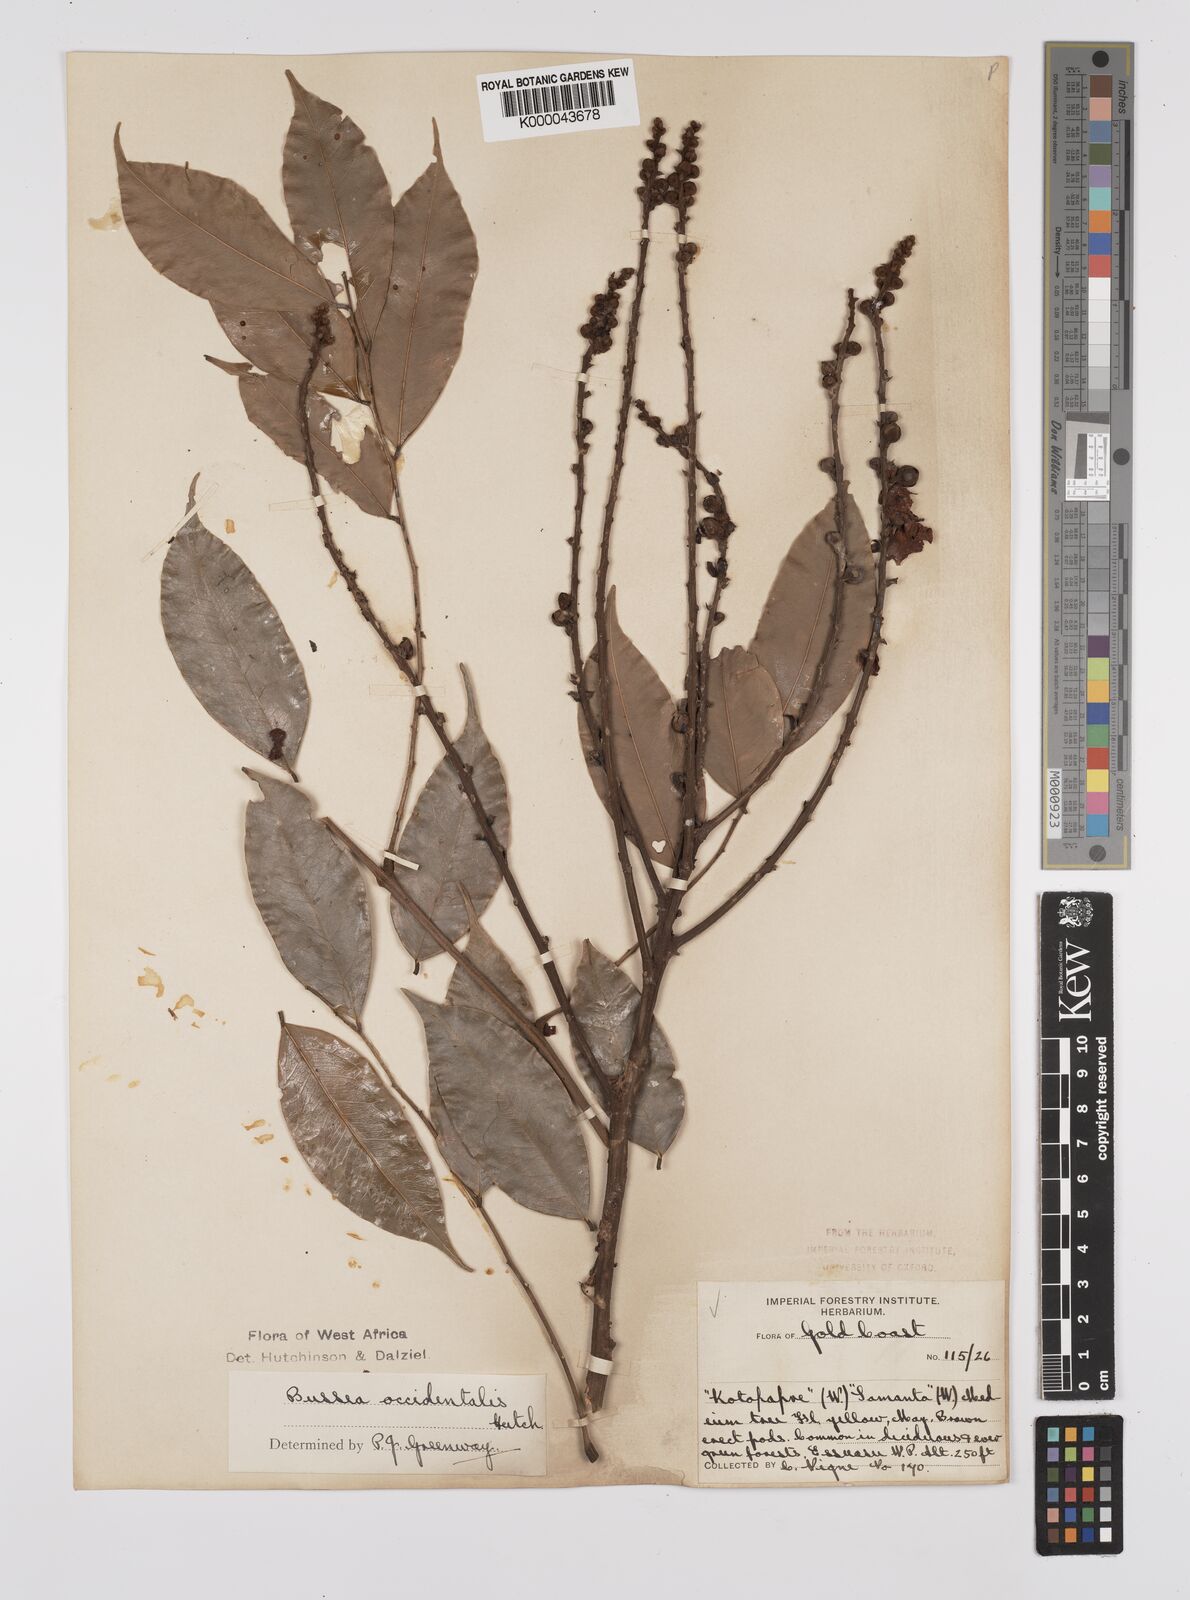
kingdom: Plantae
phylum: Tracheophyta
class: Magnoliopsida
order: Fabales
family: Fabaceae
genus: Bussea
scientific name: Bussea occidentalis
